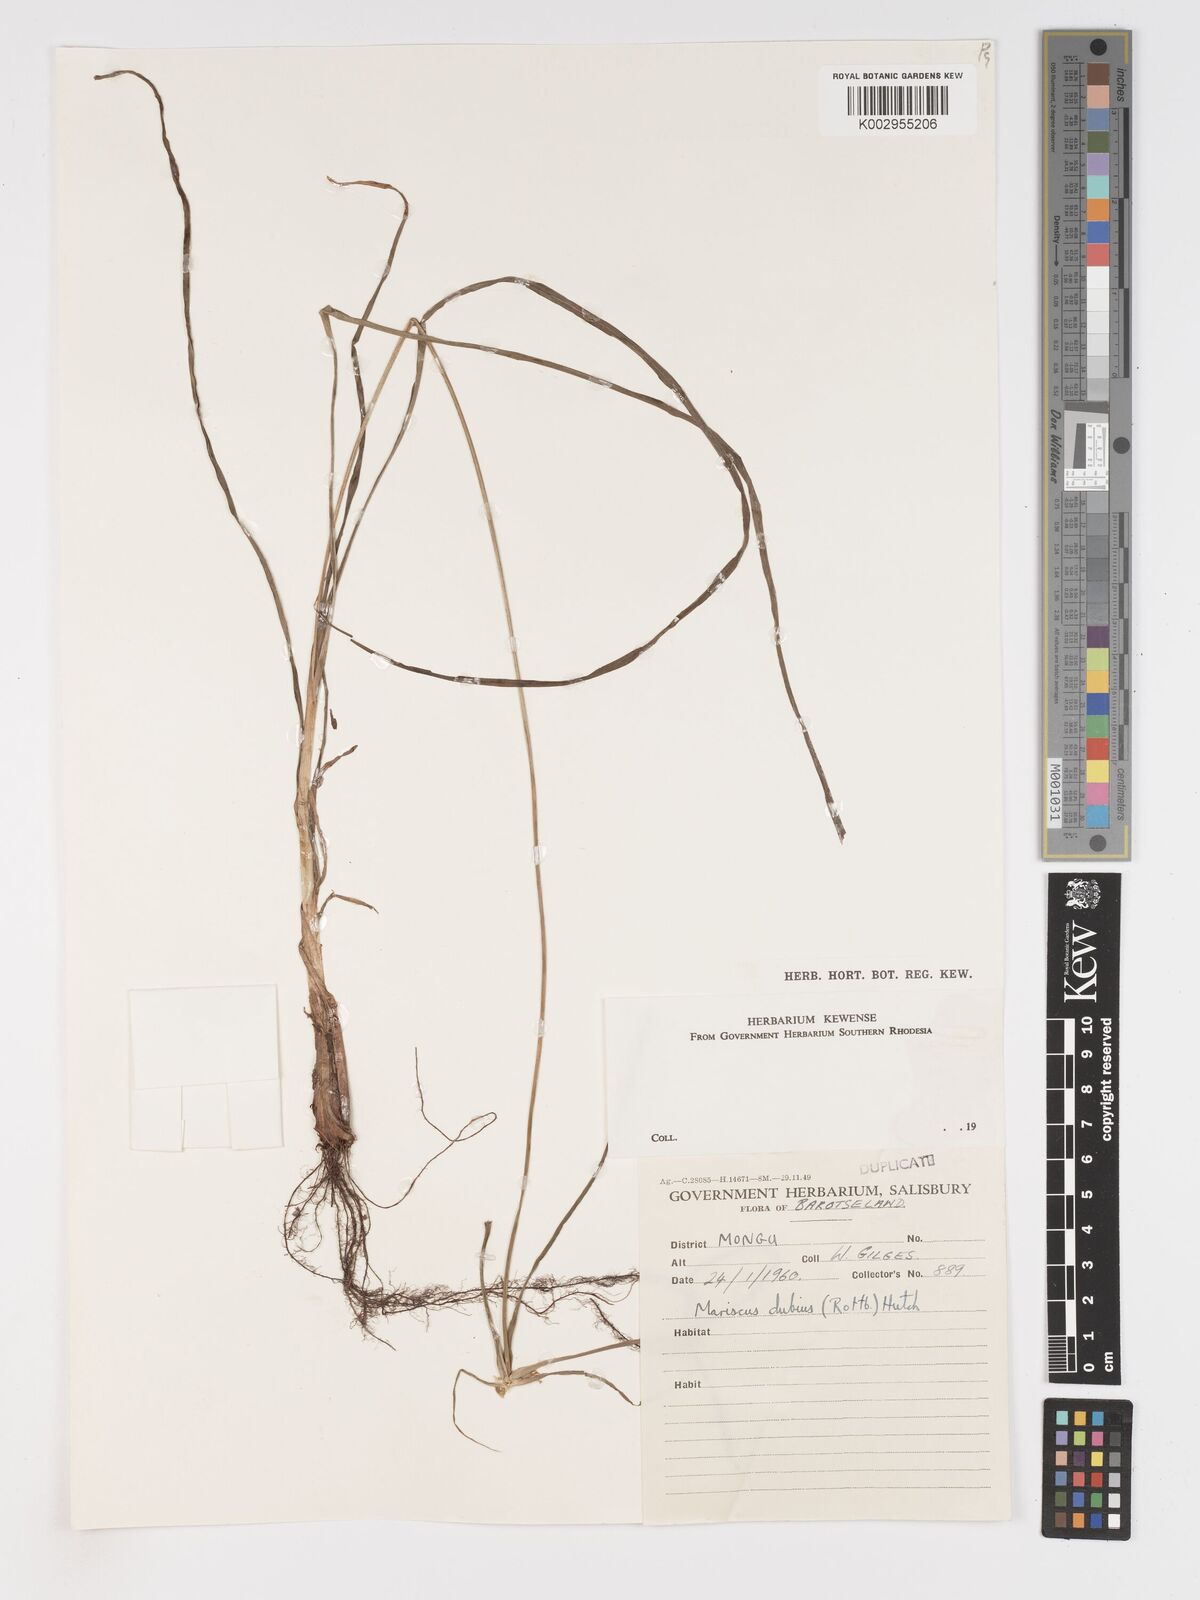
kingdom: Plantae
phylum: Tracheophyta
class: Liliopsida
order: Poales
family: Cyperaceae
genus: Cyperus
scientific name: Cyperus
